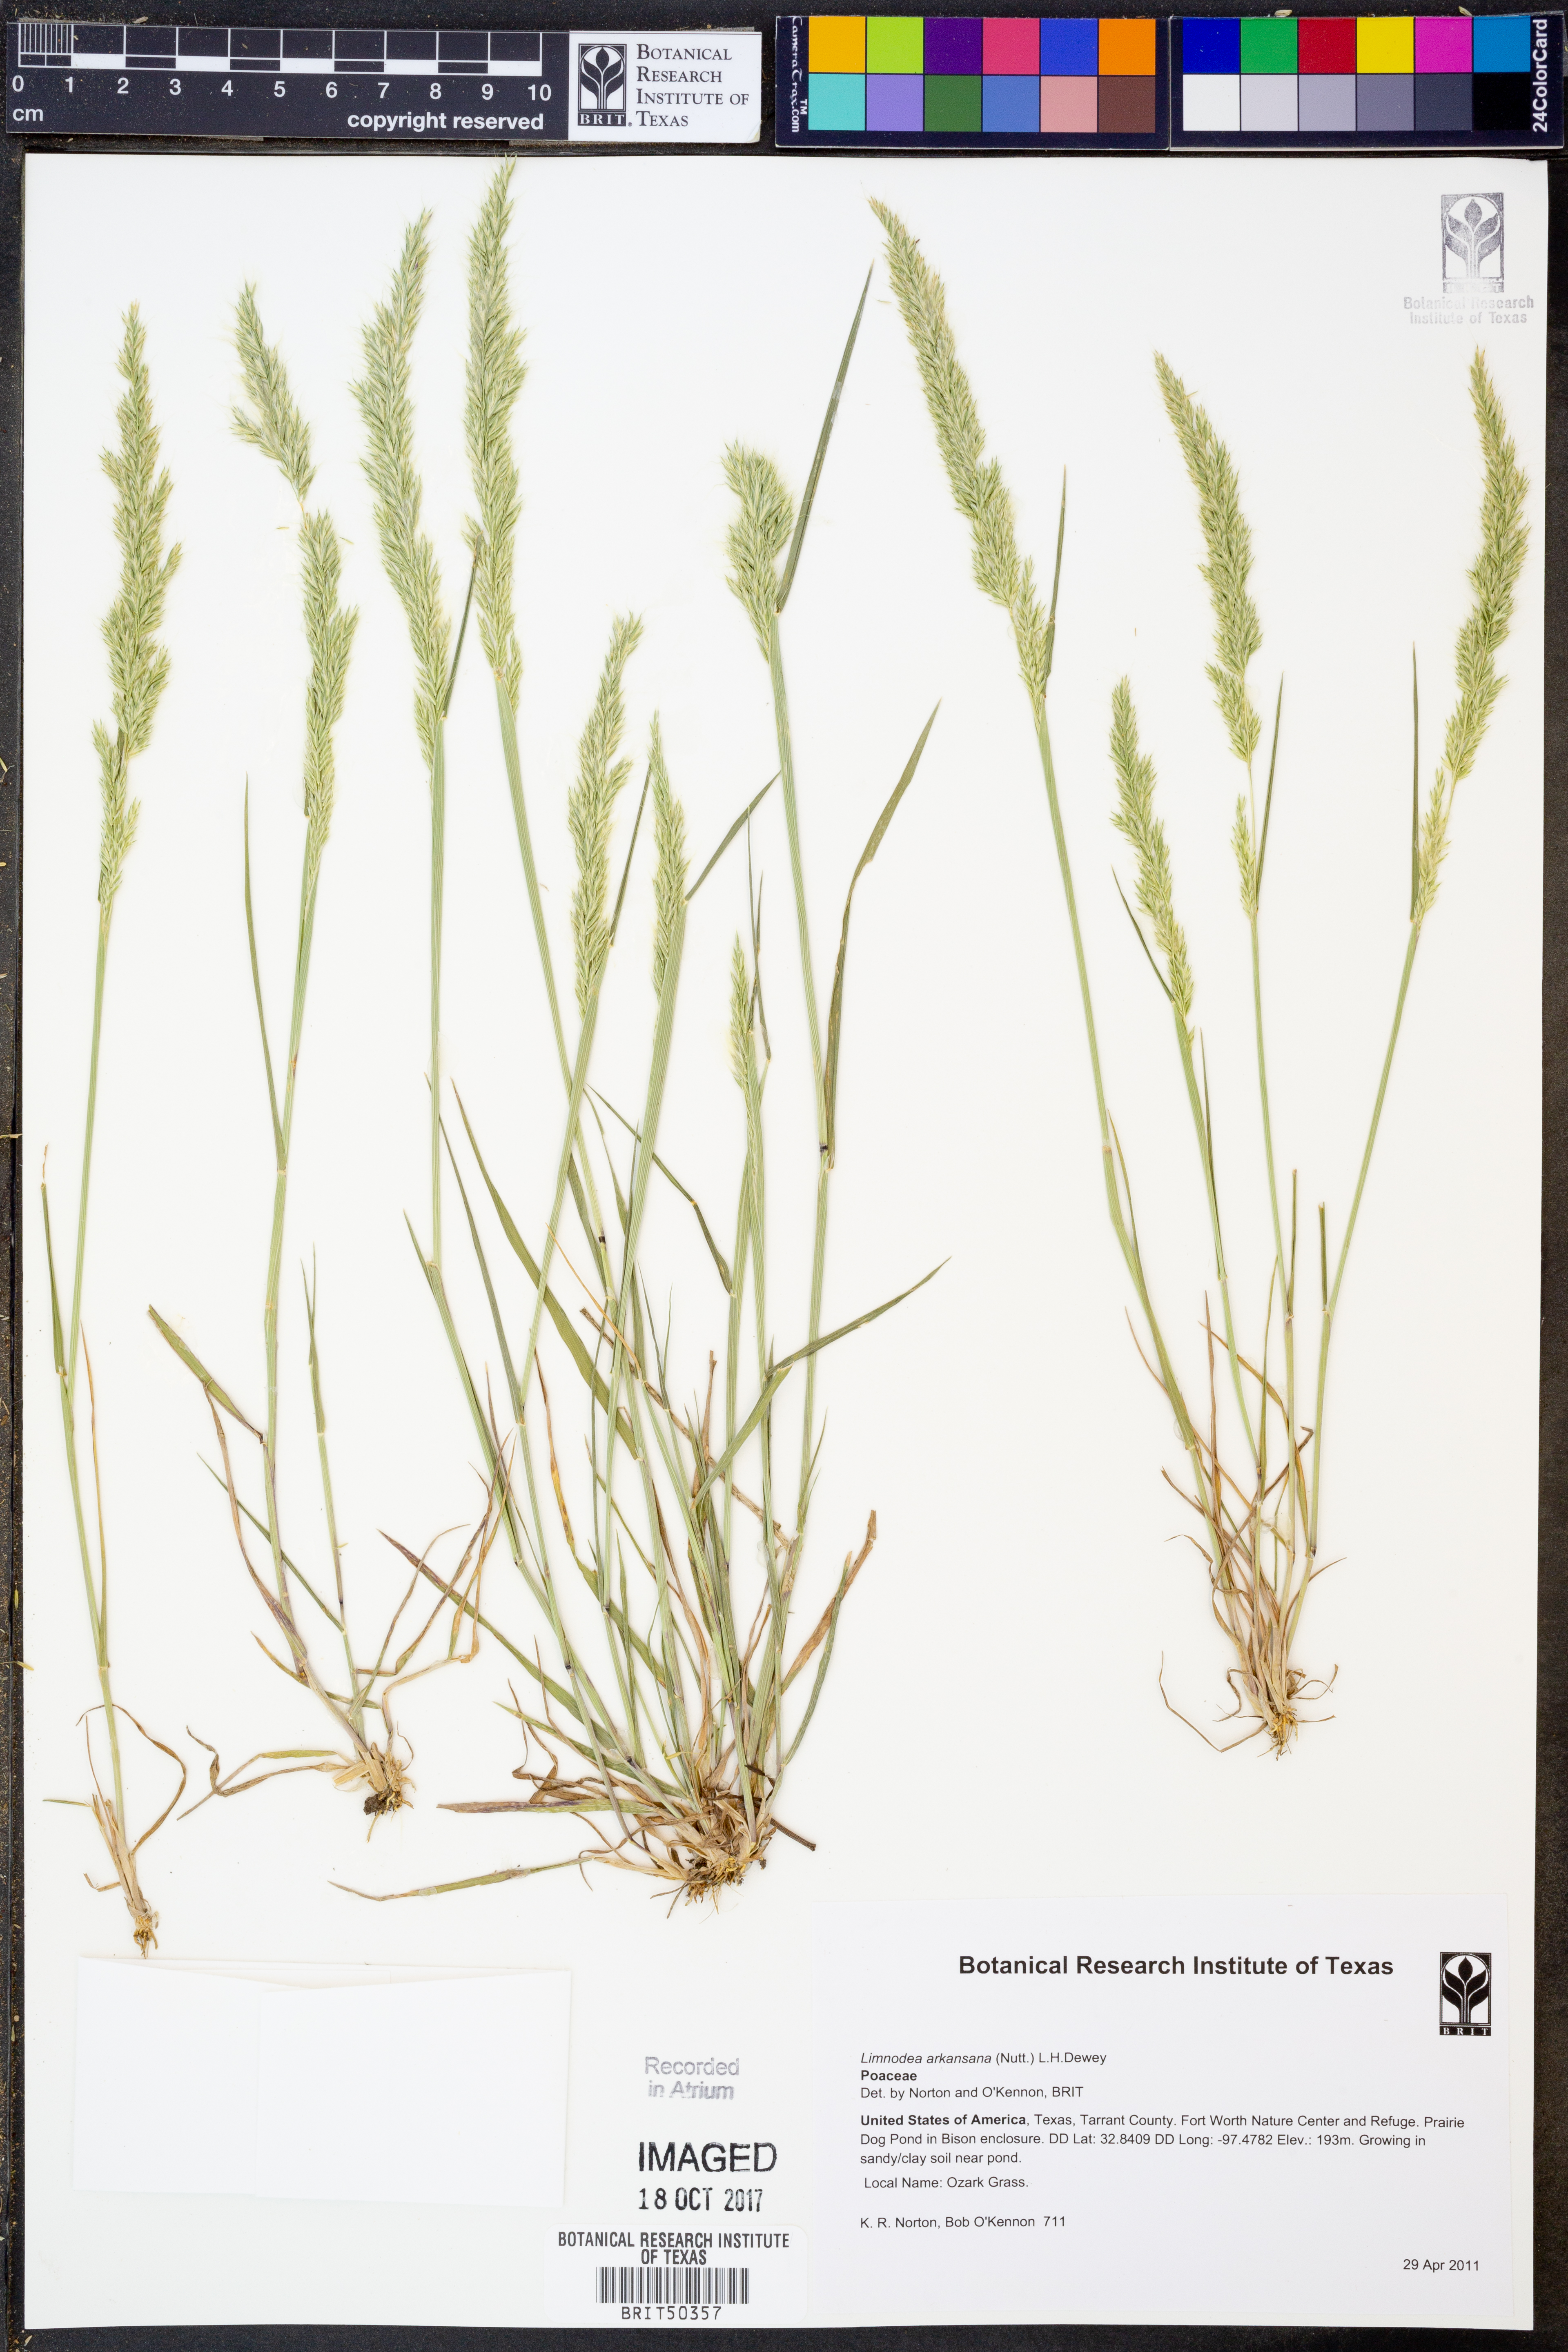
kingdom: Plantae
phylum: Tracheophyta
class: Liliopsida
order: Poales
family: Poaceae
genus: Limnodea
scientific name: Limnodea arkansana
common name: Ozark-grass
